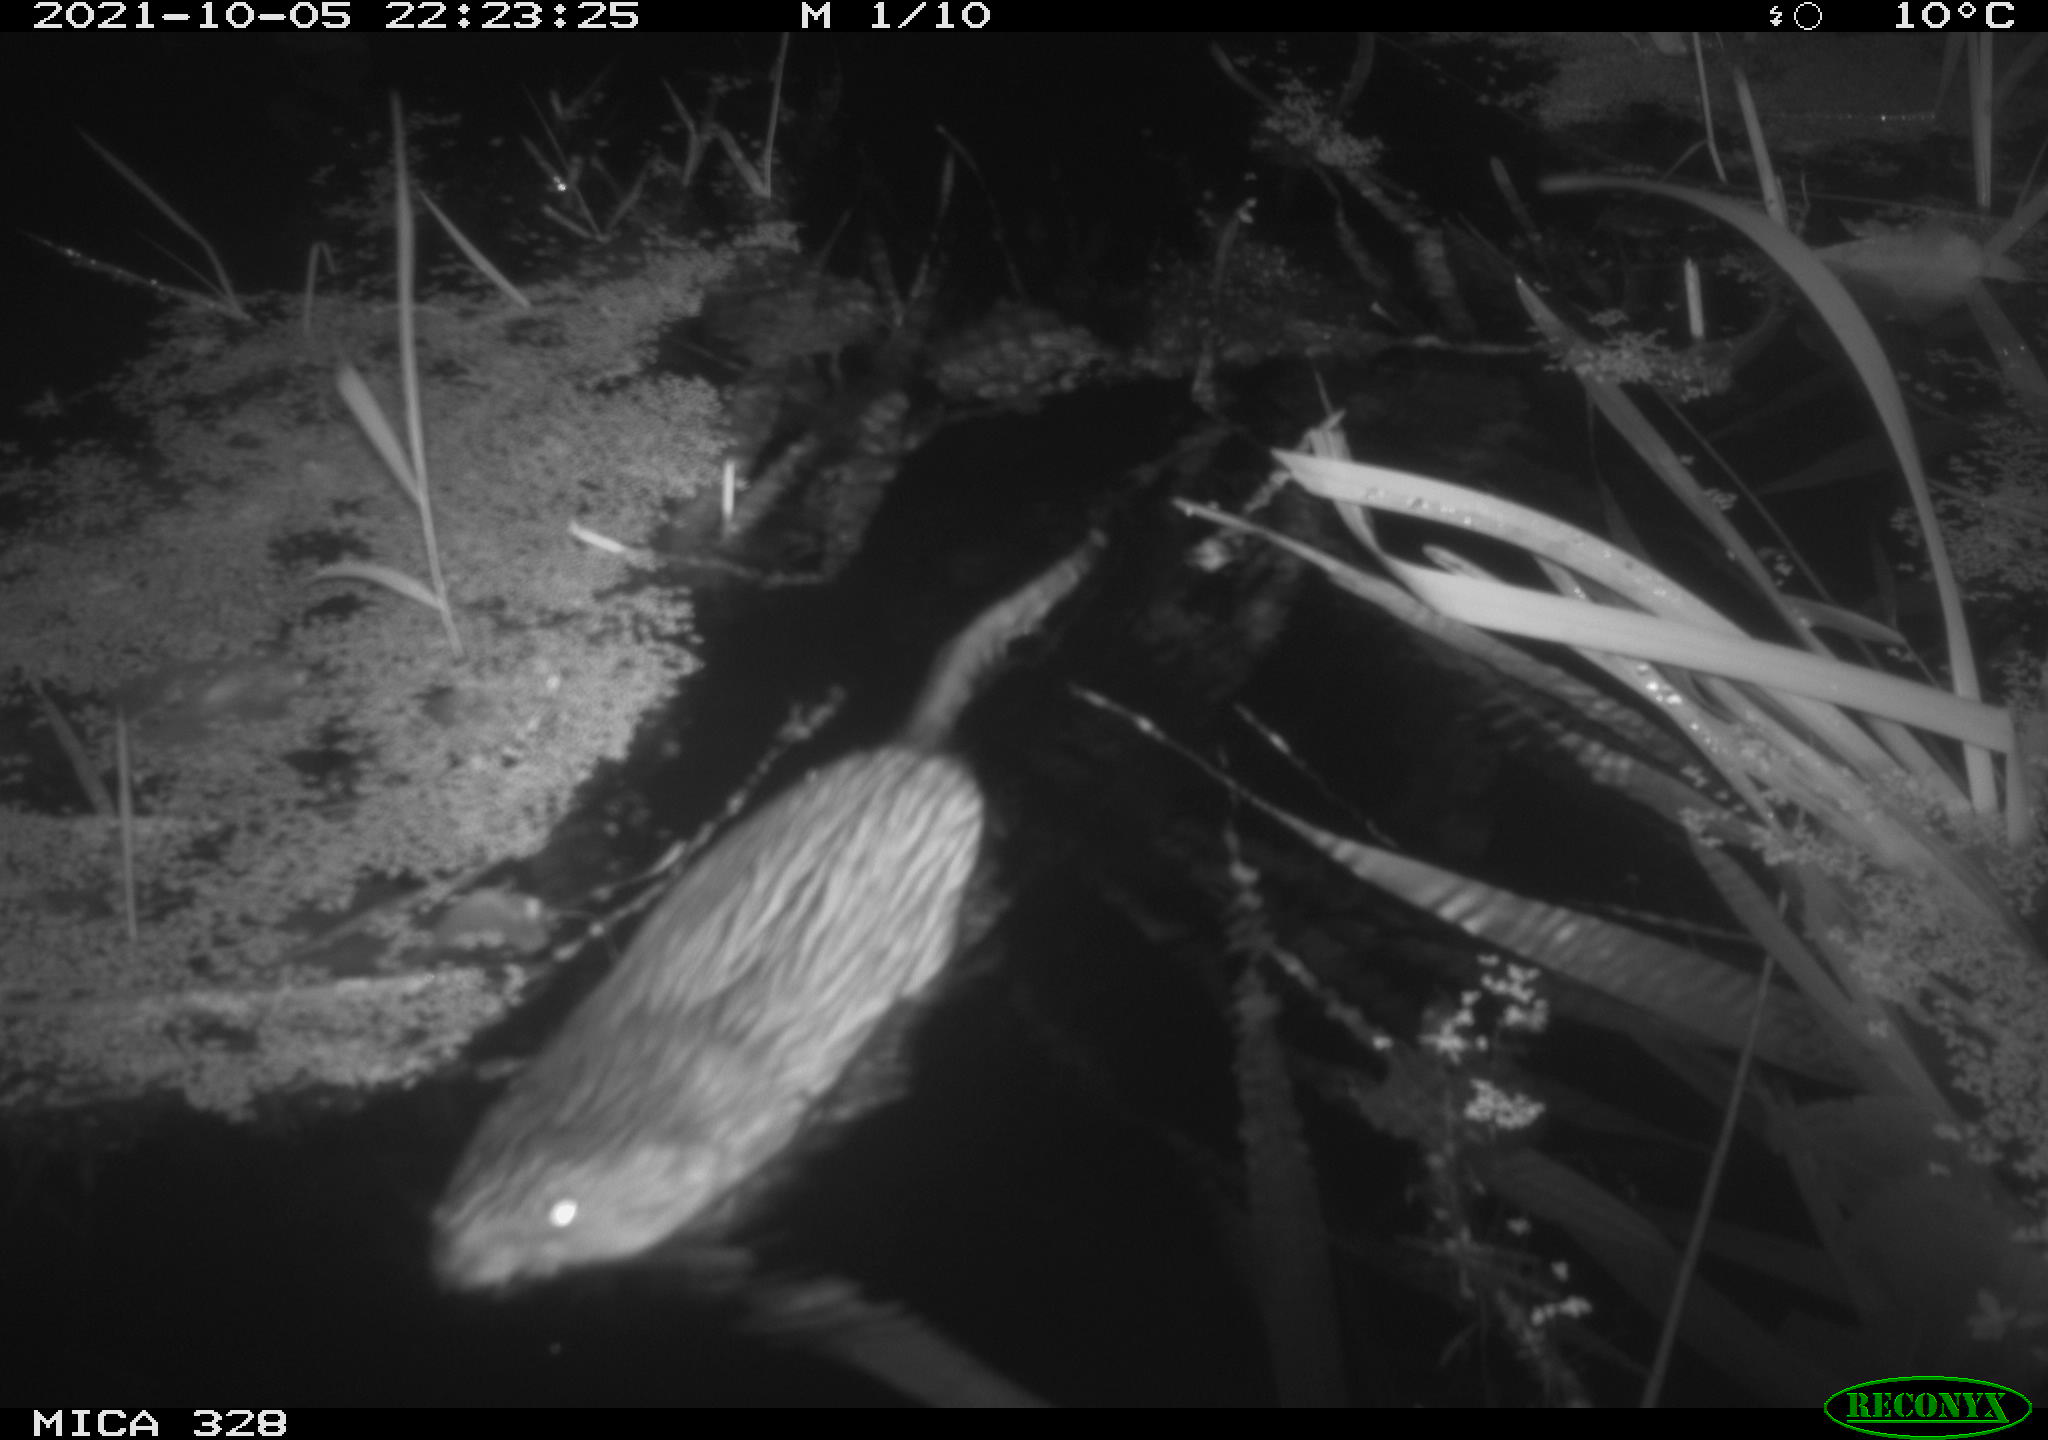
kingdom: Animalia
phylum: Chordata
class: Mammalia
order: Rodentia
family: Cricetidae
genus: Ondatra
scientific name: Ondatra zibethicus
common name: Muskrat
